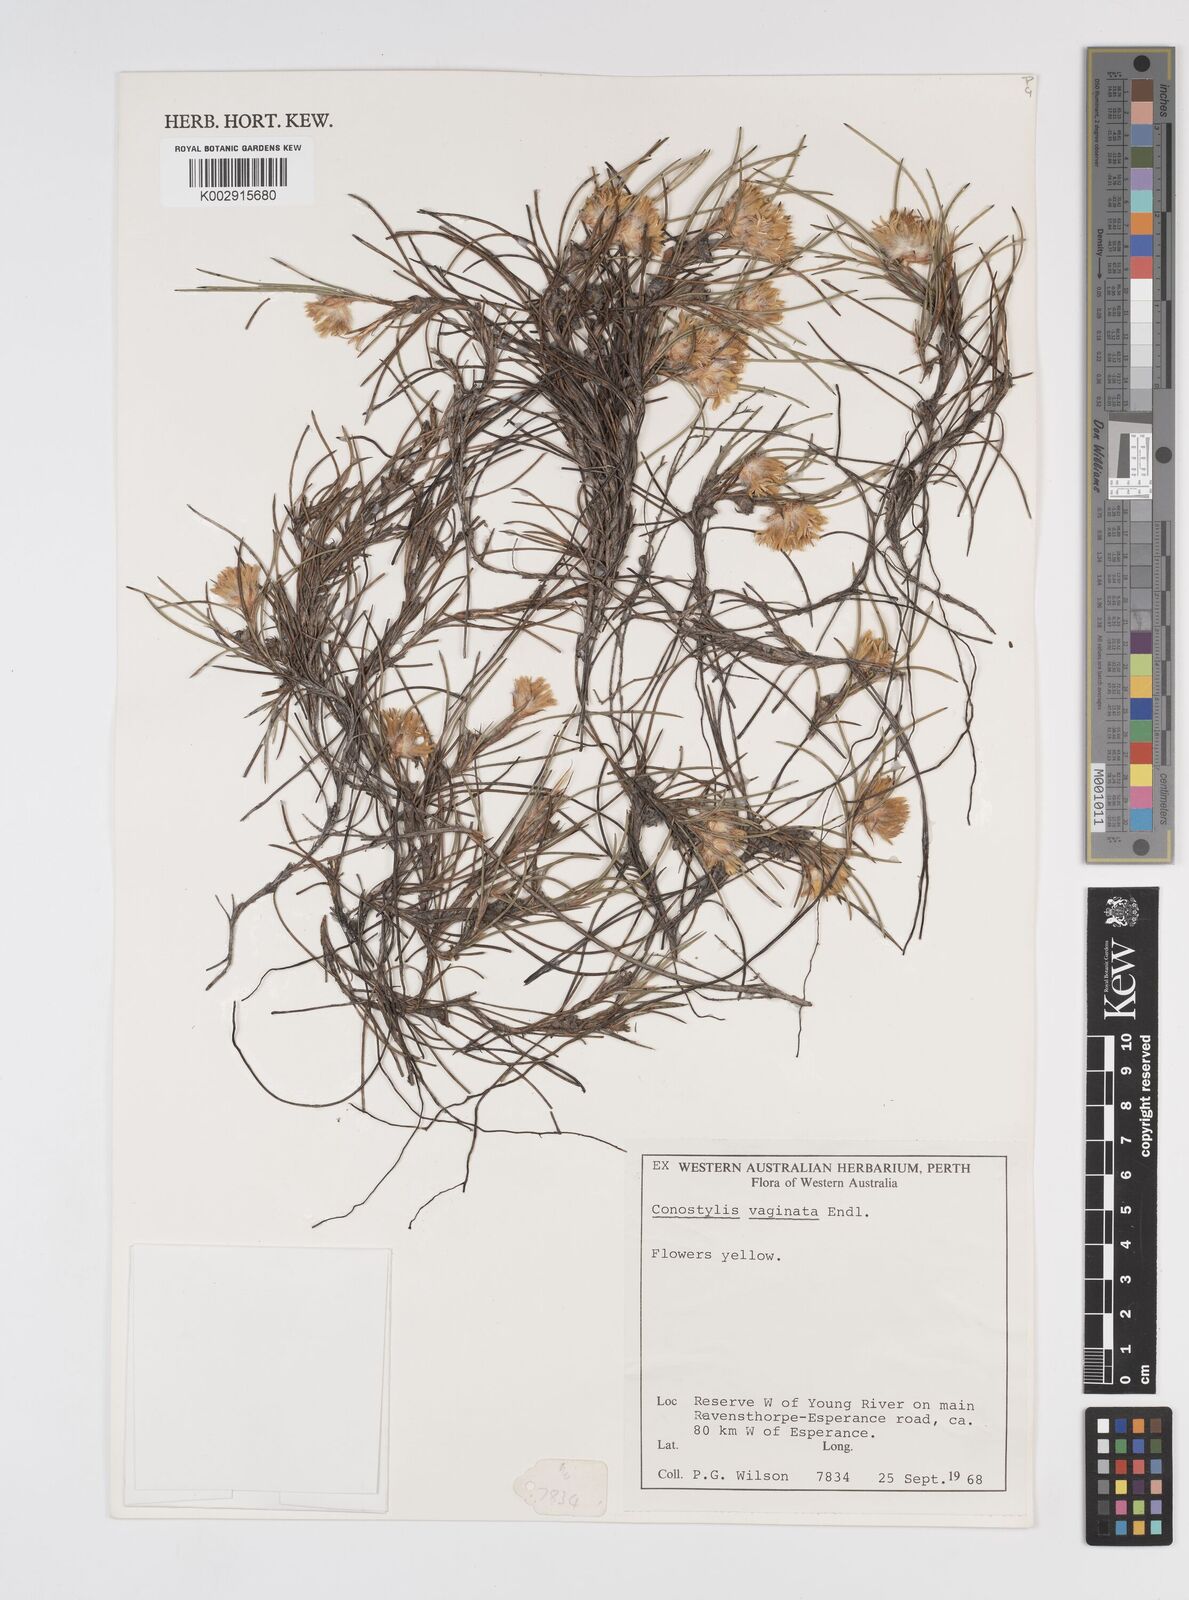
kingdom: Plantae
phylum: Tracheophyta
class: Liliopsida
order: Commelinales
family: Haemodoraceae
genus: Conostylis
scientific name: Conostylis vaginata
